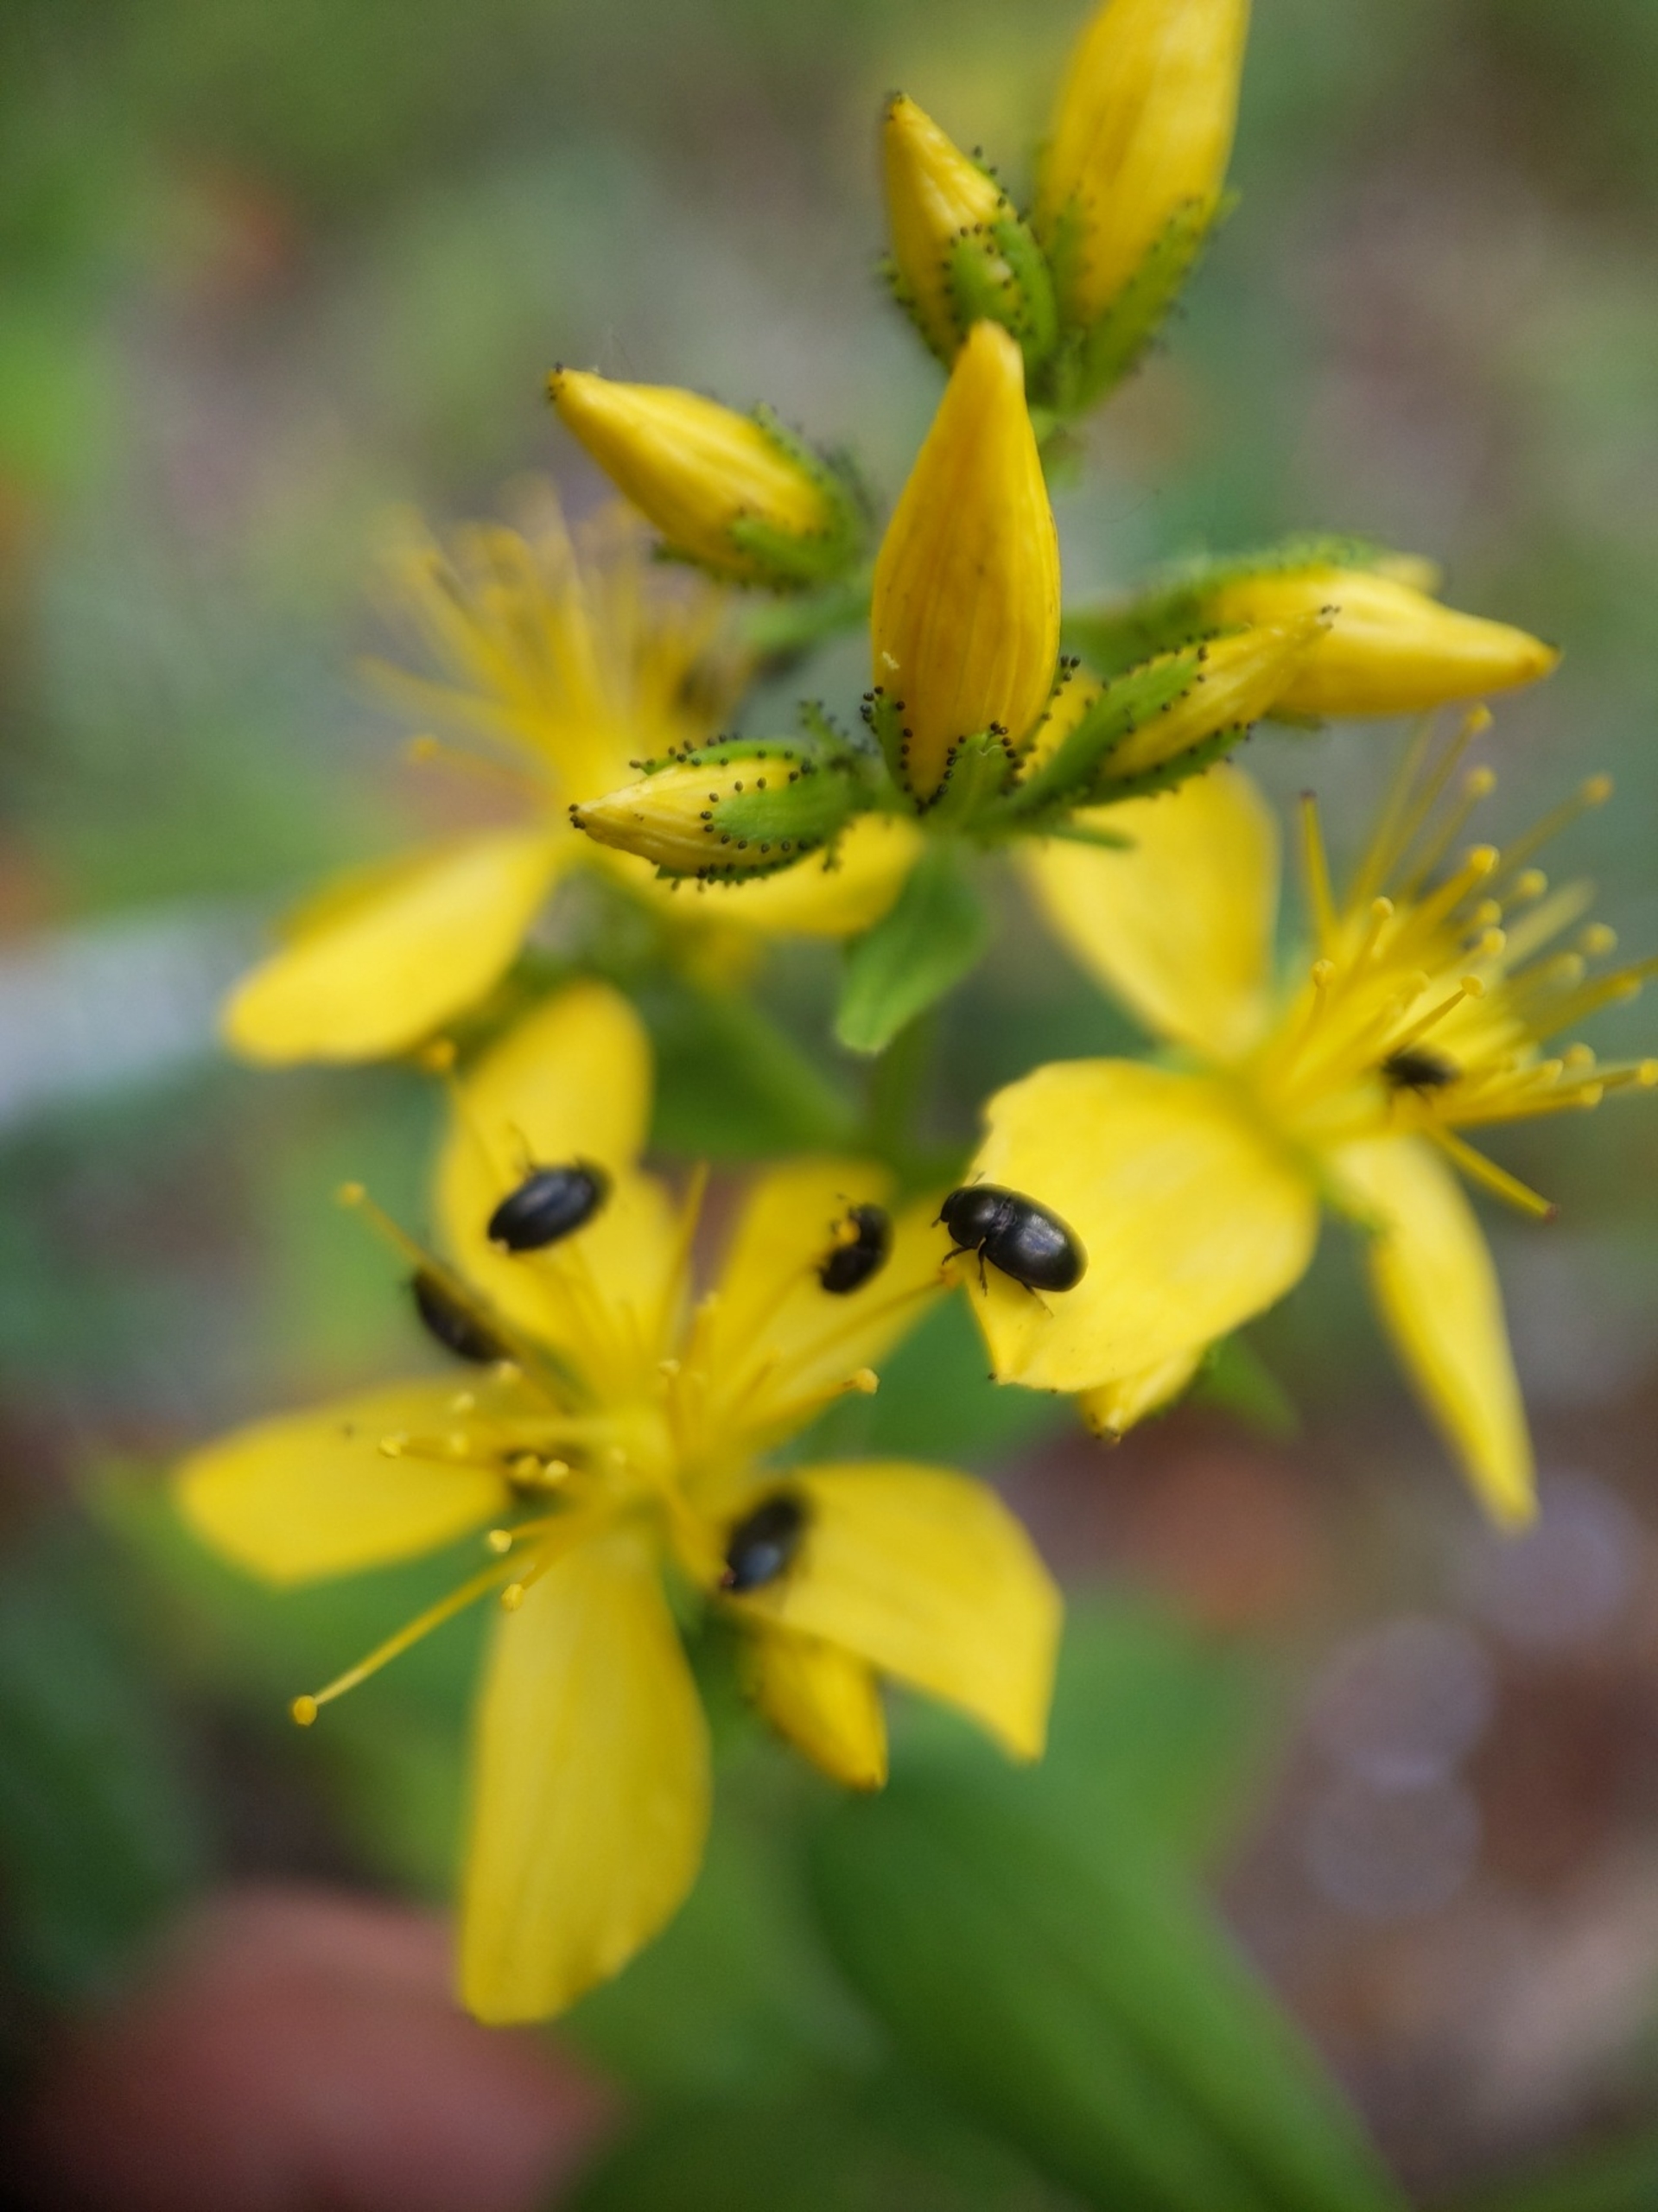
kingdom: Plantae
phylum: Tracheophyta
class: Magnoliopsida
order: Malpighiales
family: Hypericaceae
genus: Hypericum
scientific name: Hypericum hirsutum
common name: Lådden perikon
